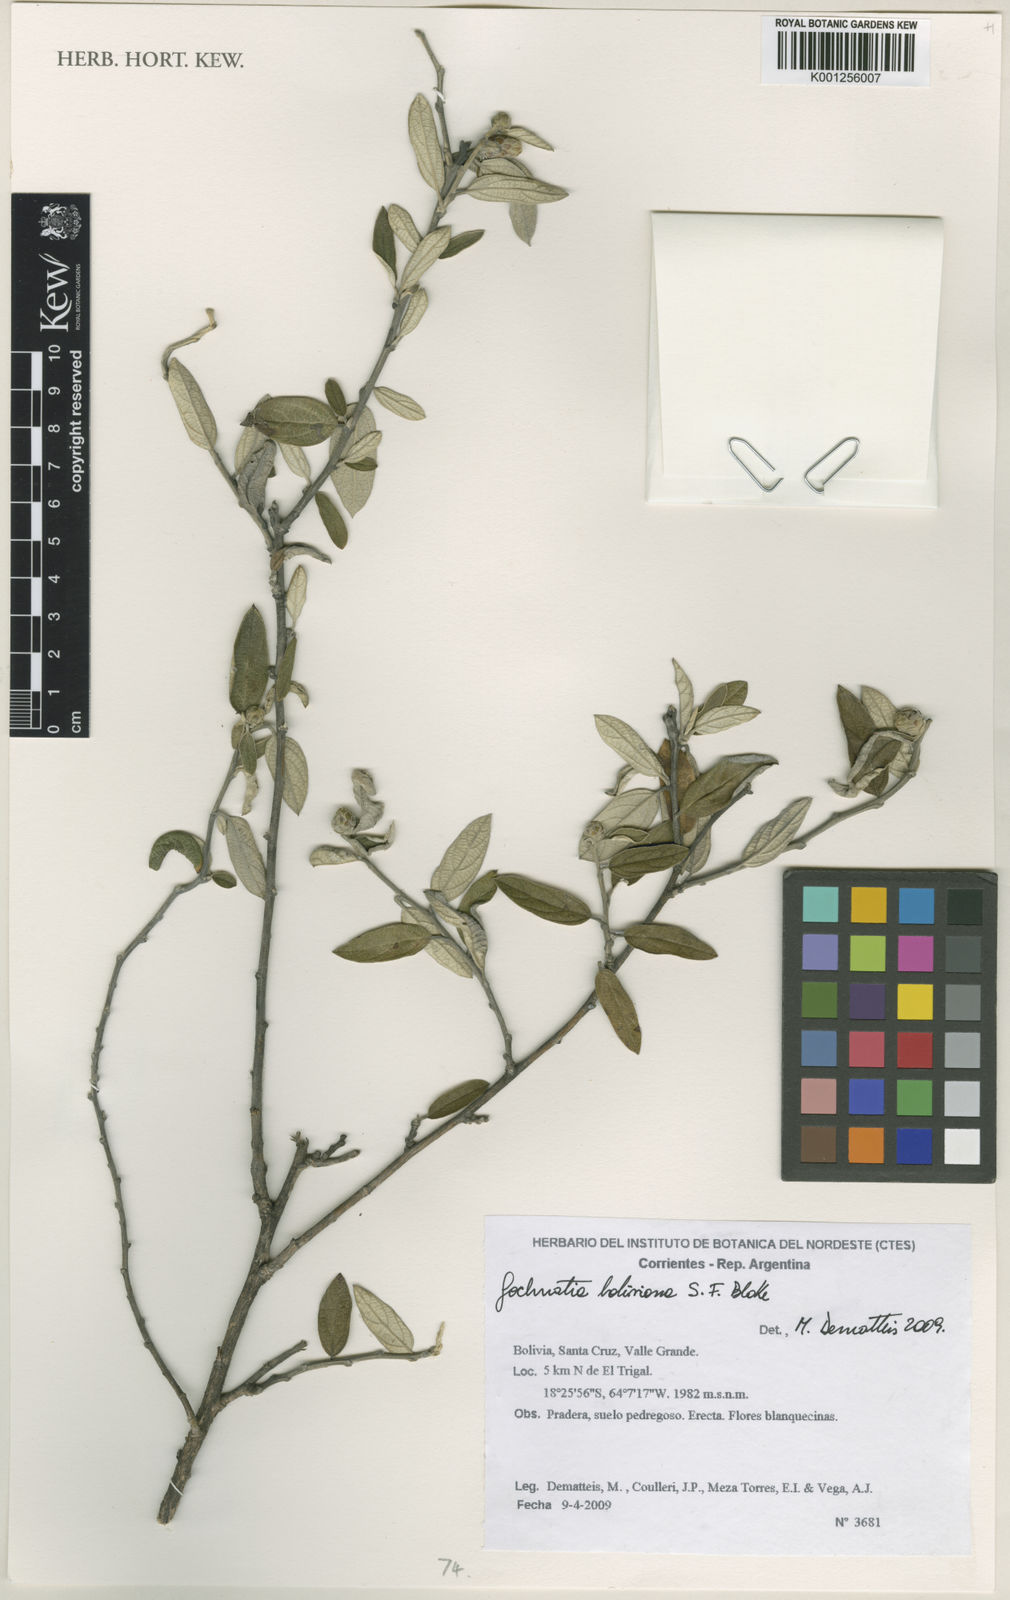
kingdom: Plantae
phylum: Tracheophyta
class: Magnoliopsida
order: Asterales
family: Asteraceae
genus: Gochnatia
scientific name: Gochnatia boliviana
